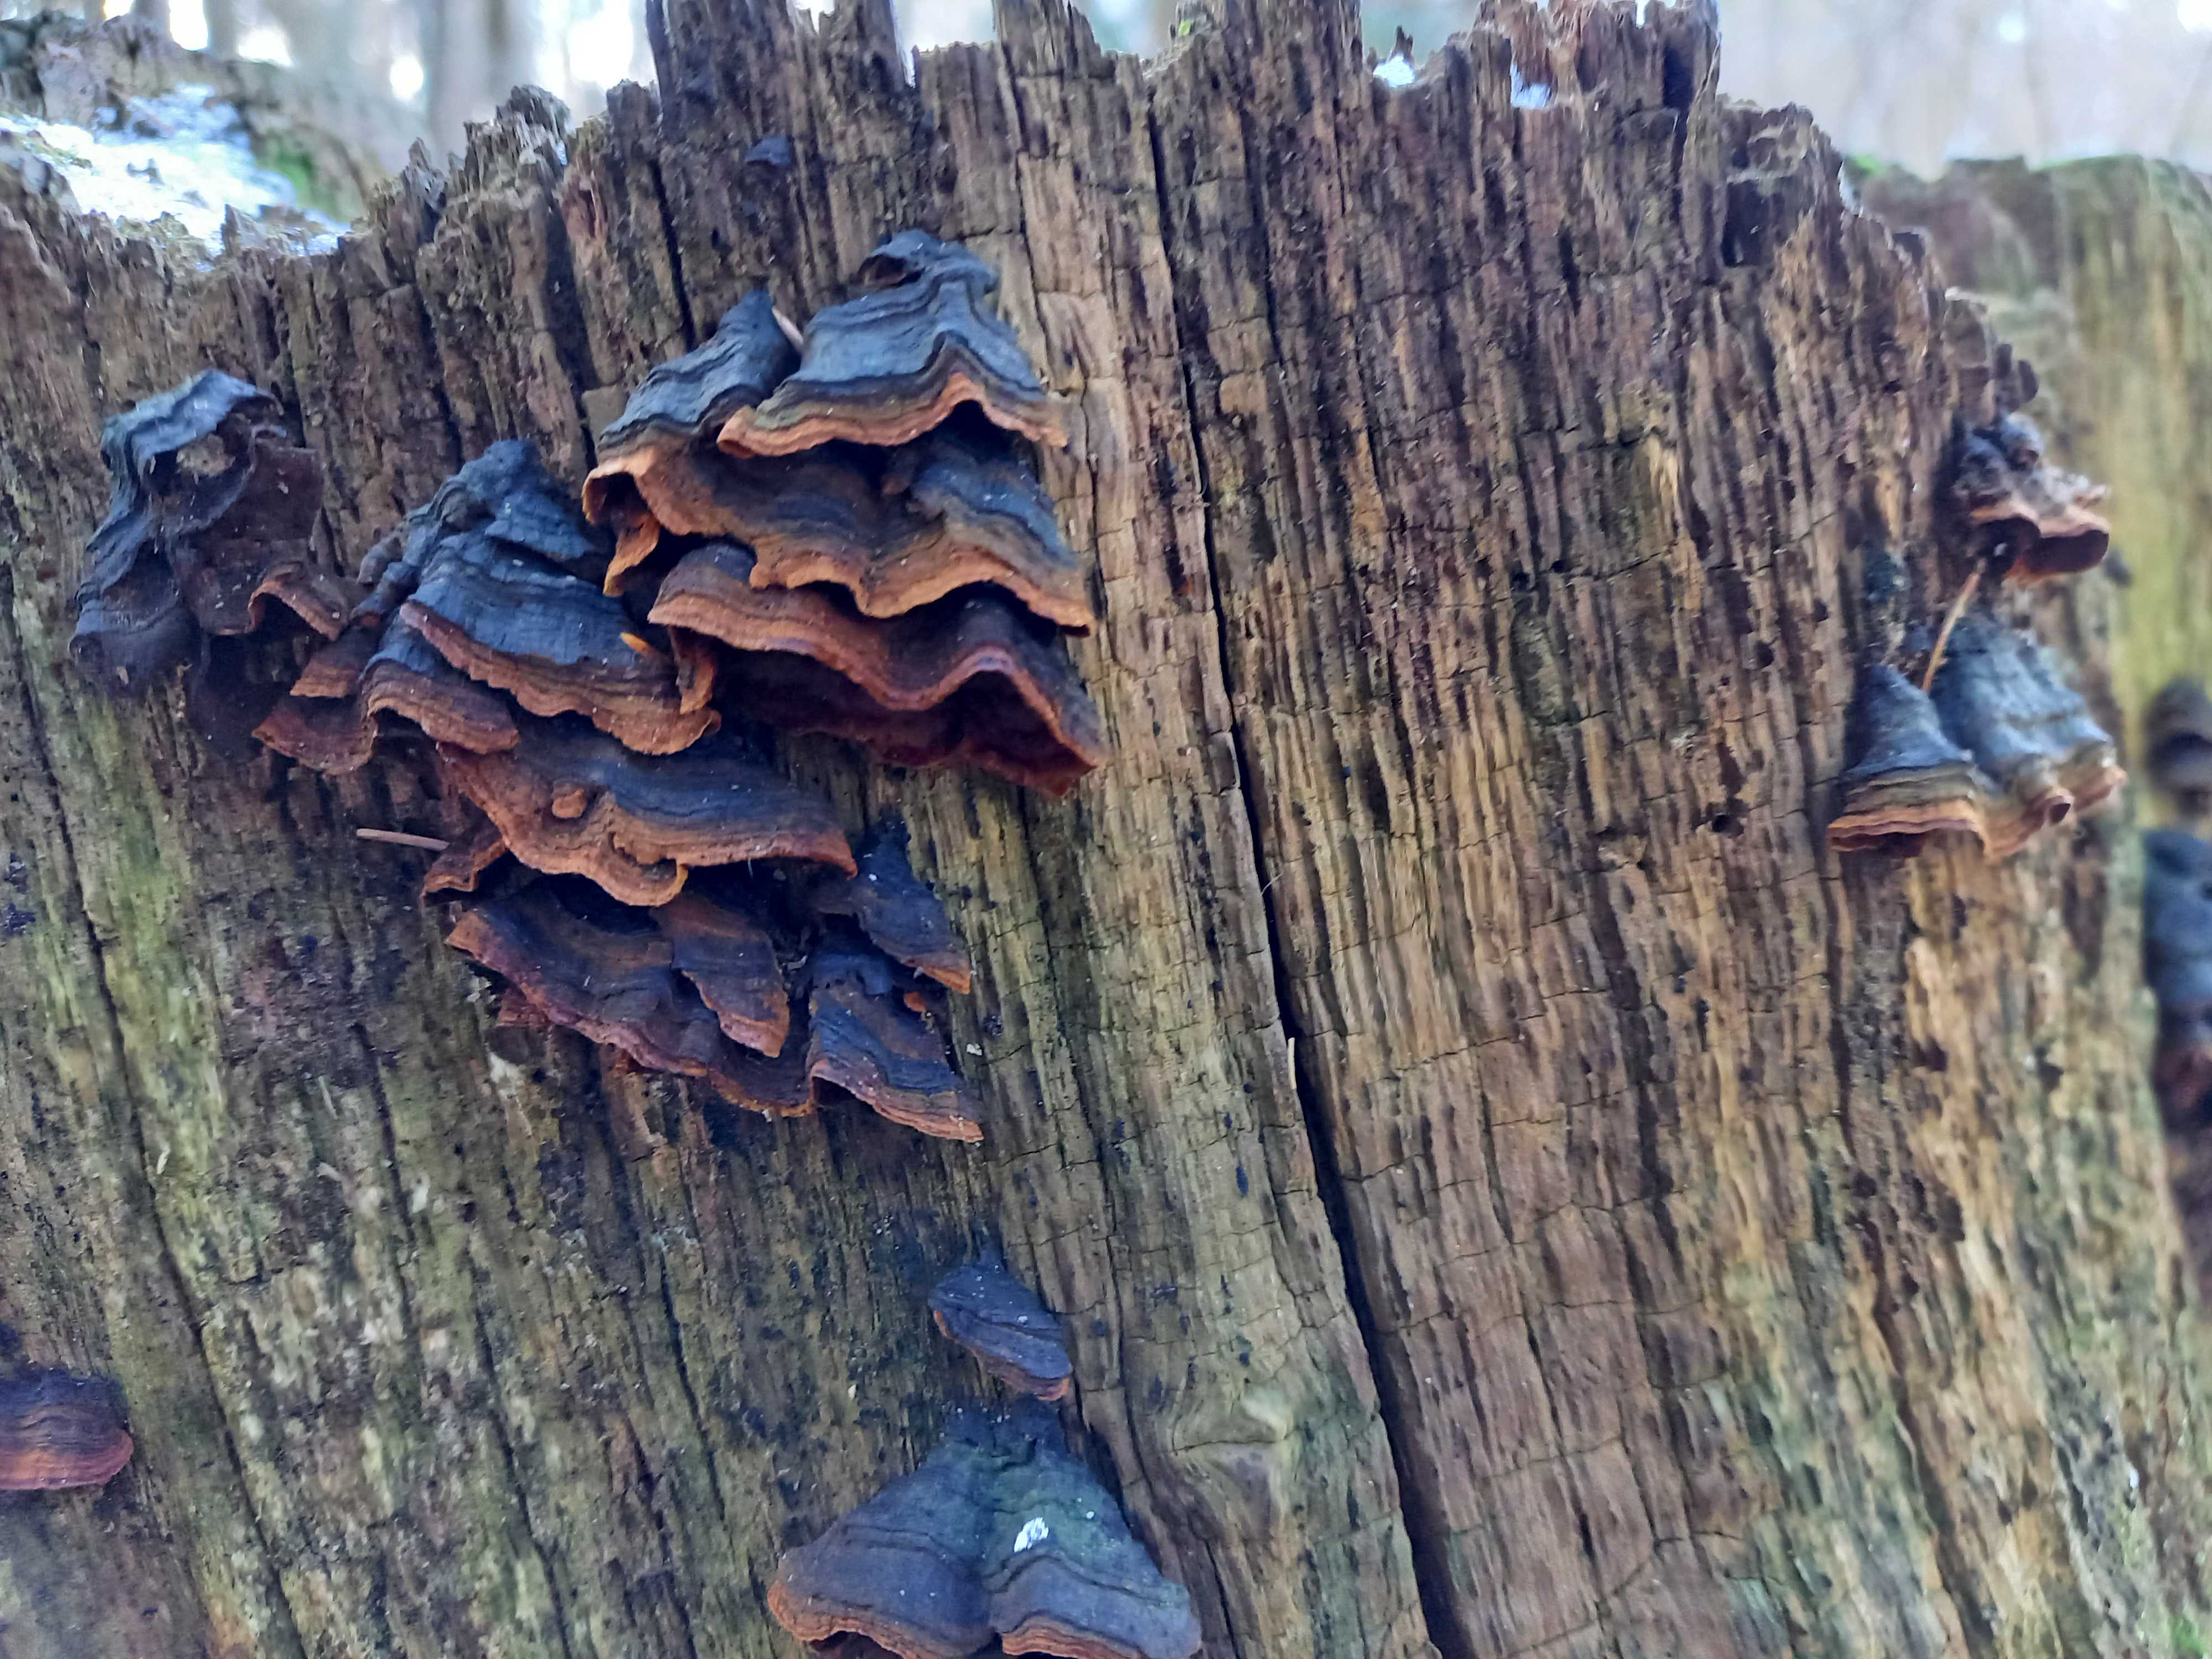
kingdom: Fungi
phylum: Basidiomycota
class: Agaricomycetes
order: Hymenochaetales
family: Hymenochaetaceae
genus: Hymenochaete
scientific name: Hymenochaete rubiginosa
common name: stiv ruslædersvamp
